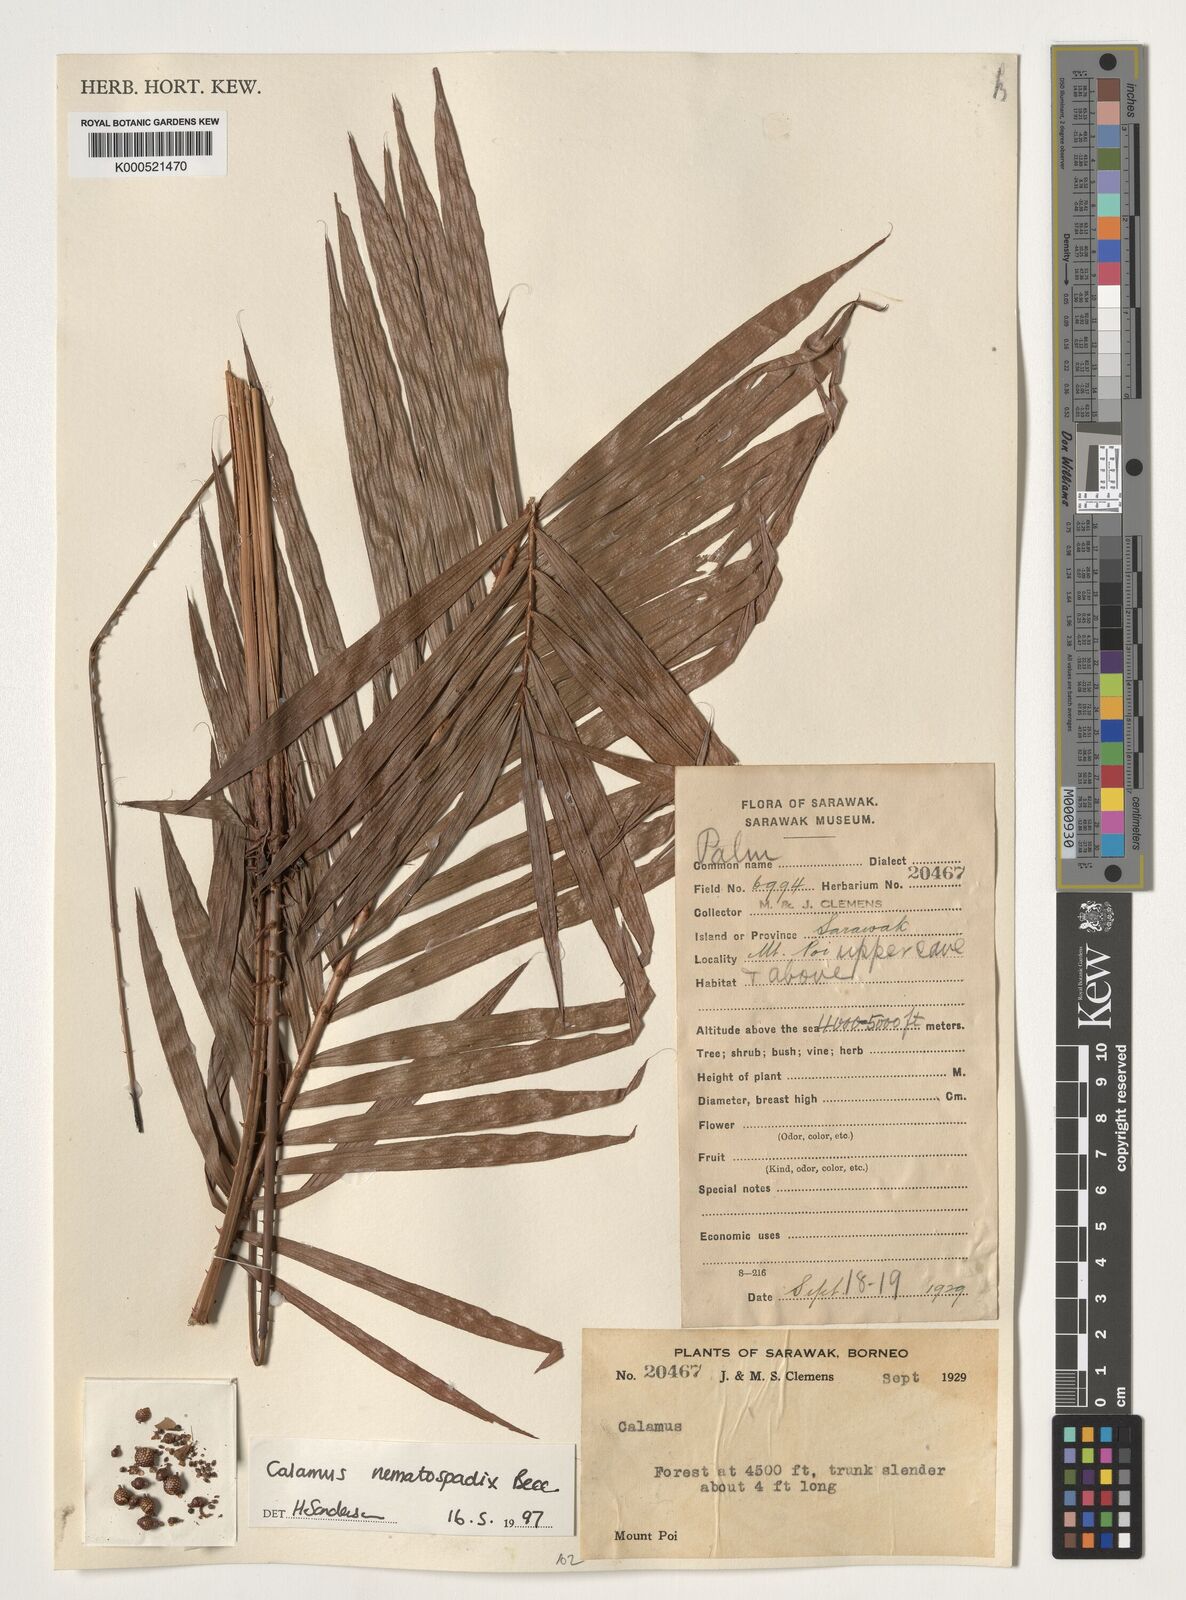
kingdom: Plantae
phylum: Tracheophyta
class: Liliopsida
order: Arecales
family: Arecaceae
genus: Calamus
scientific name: Calamus nematospadix
